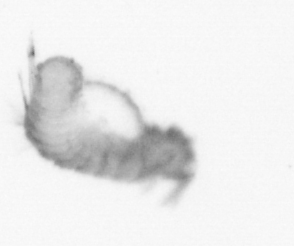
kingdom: Animalia
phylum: Annelida
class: Polychaeta
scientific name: Polychaeta
